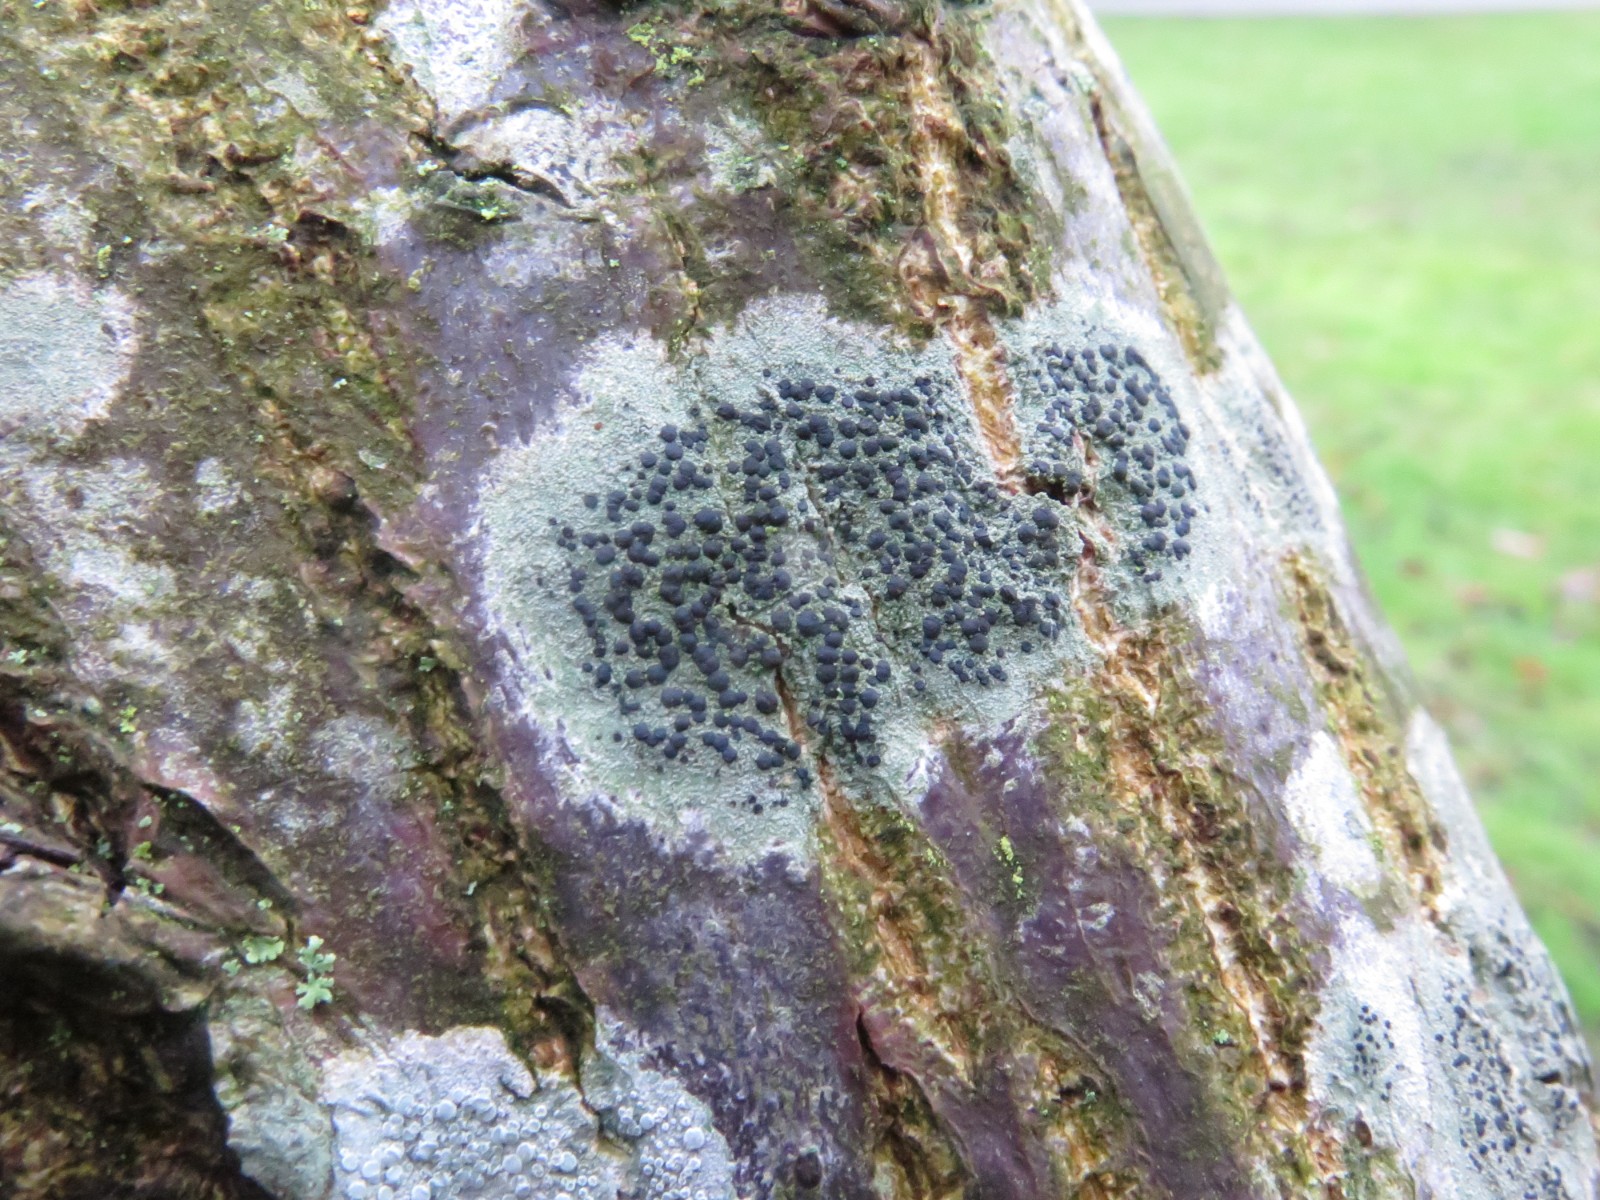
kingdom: Fungi
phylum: Ascomycota
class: Lecanoromycetes
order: Lecanorales
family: Lecanoraceae
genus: Lecidella
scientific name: Lecidella elaeochroma
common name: grågrøn skivelav
